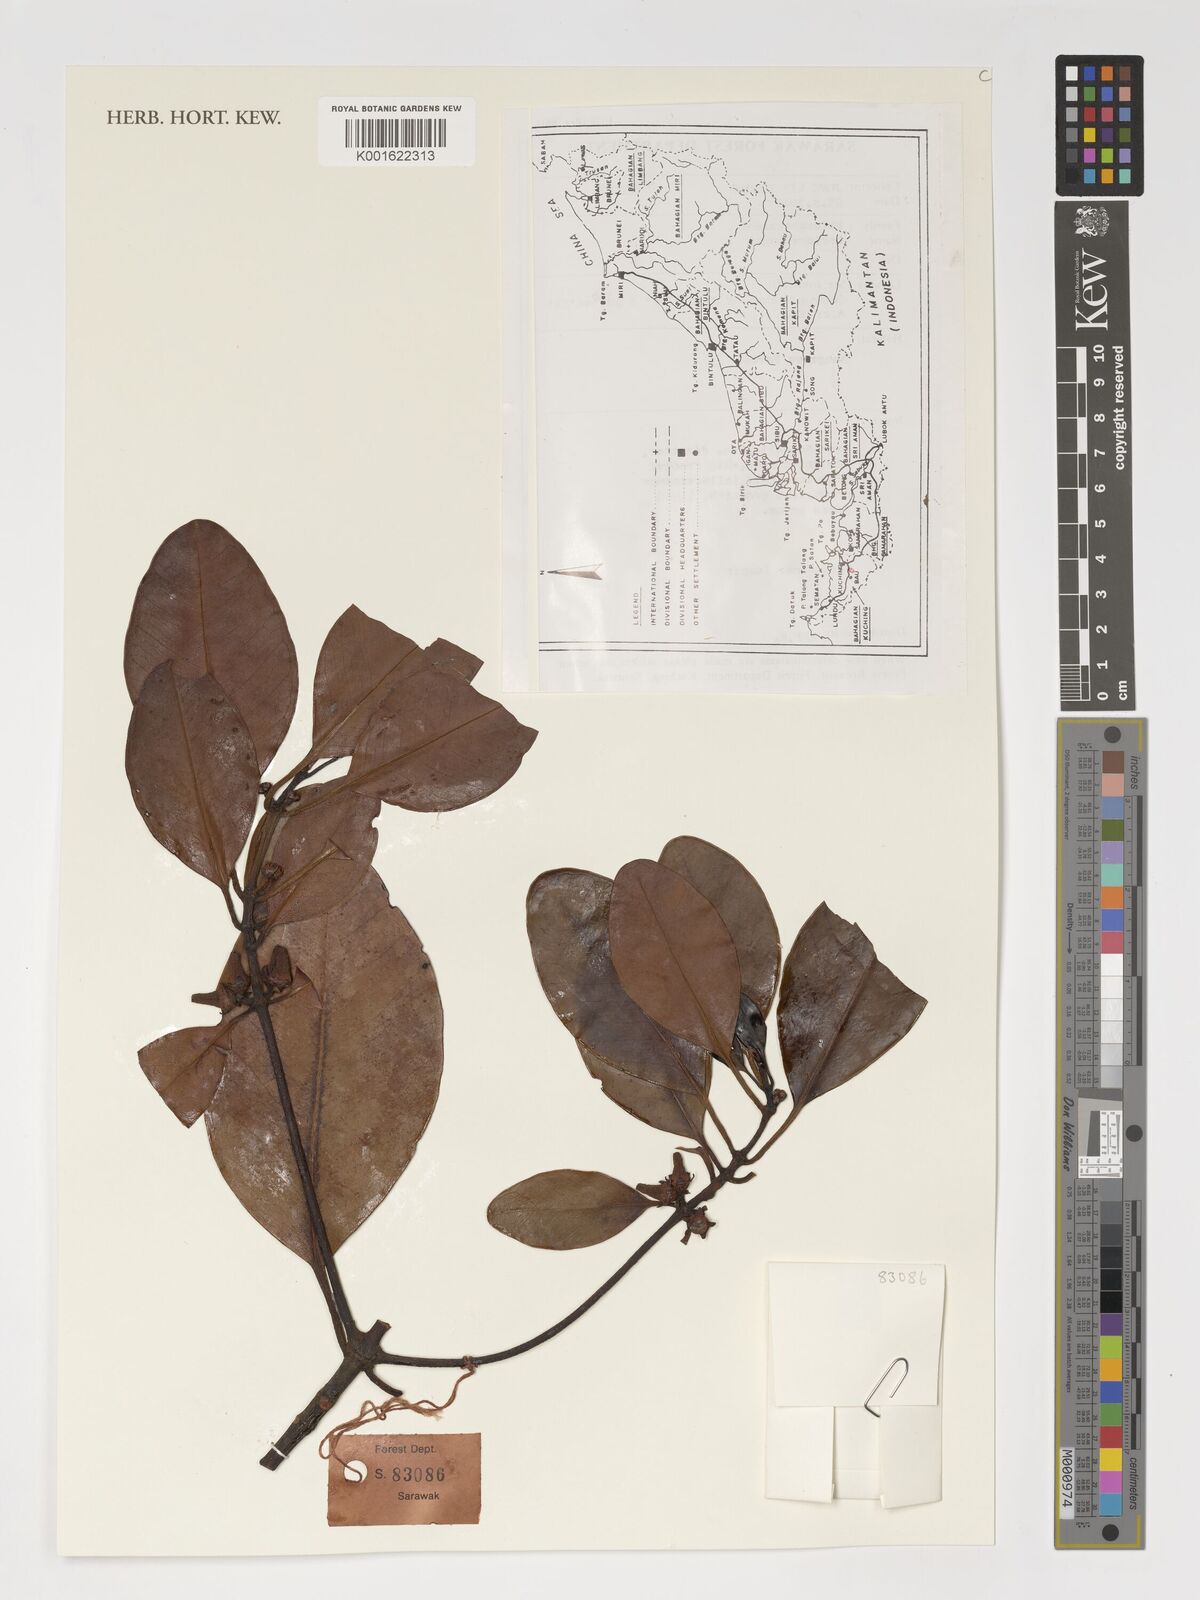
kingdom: Plantae
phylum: Tracheophyta
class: Magnoliopsida
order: Malpighiales
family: Rhizophoraceae
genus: Ceriops
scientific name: Ceriops tagal
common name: Spurred mangrove
